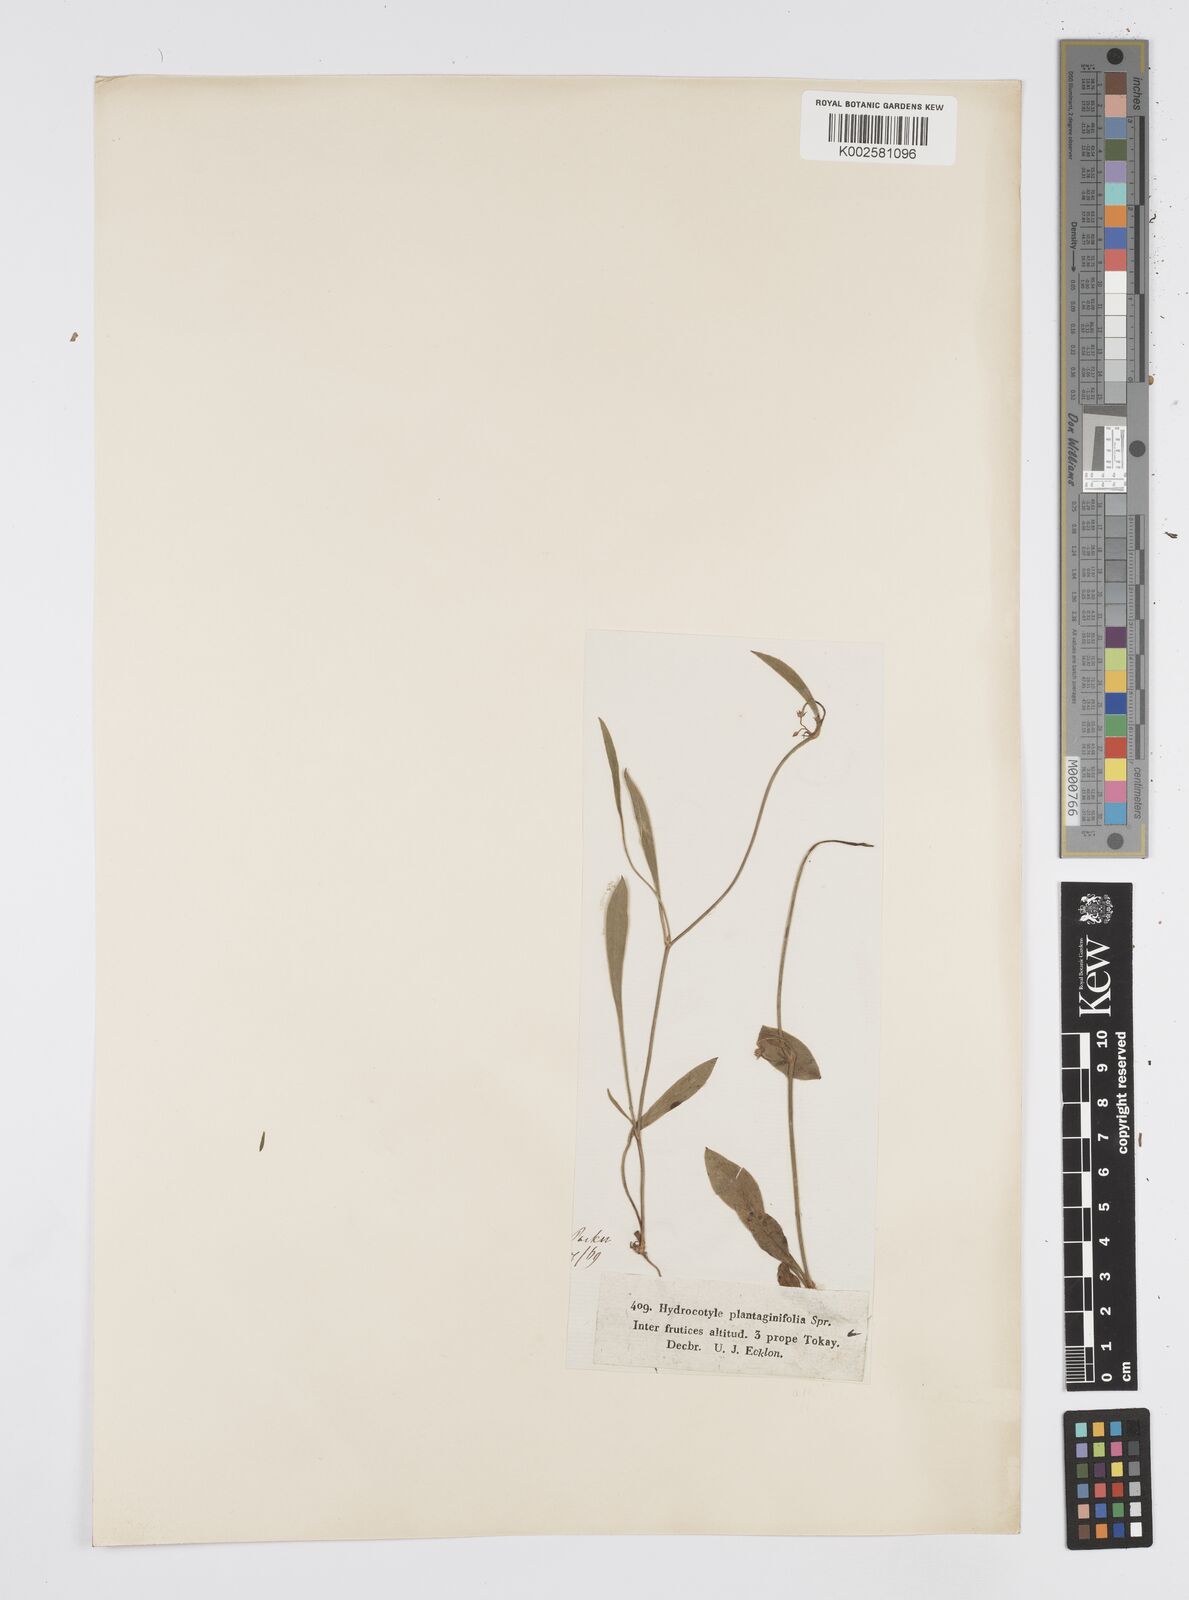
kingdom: Plantae
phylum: Tracheophyta
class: Magnoliopsida
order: Apiales
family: Apiaceae
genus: Centella
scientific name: Centella affinis
